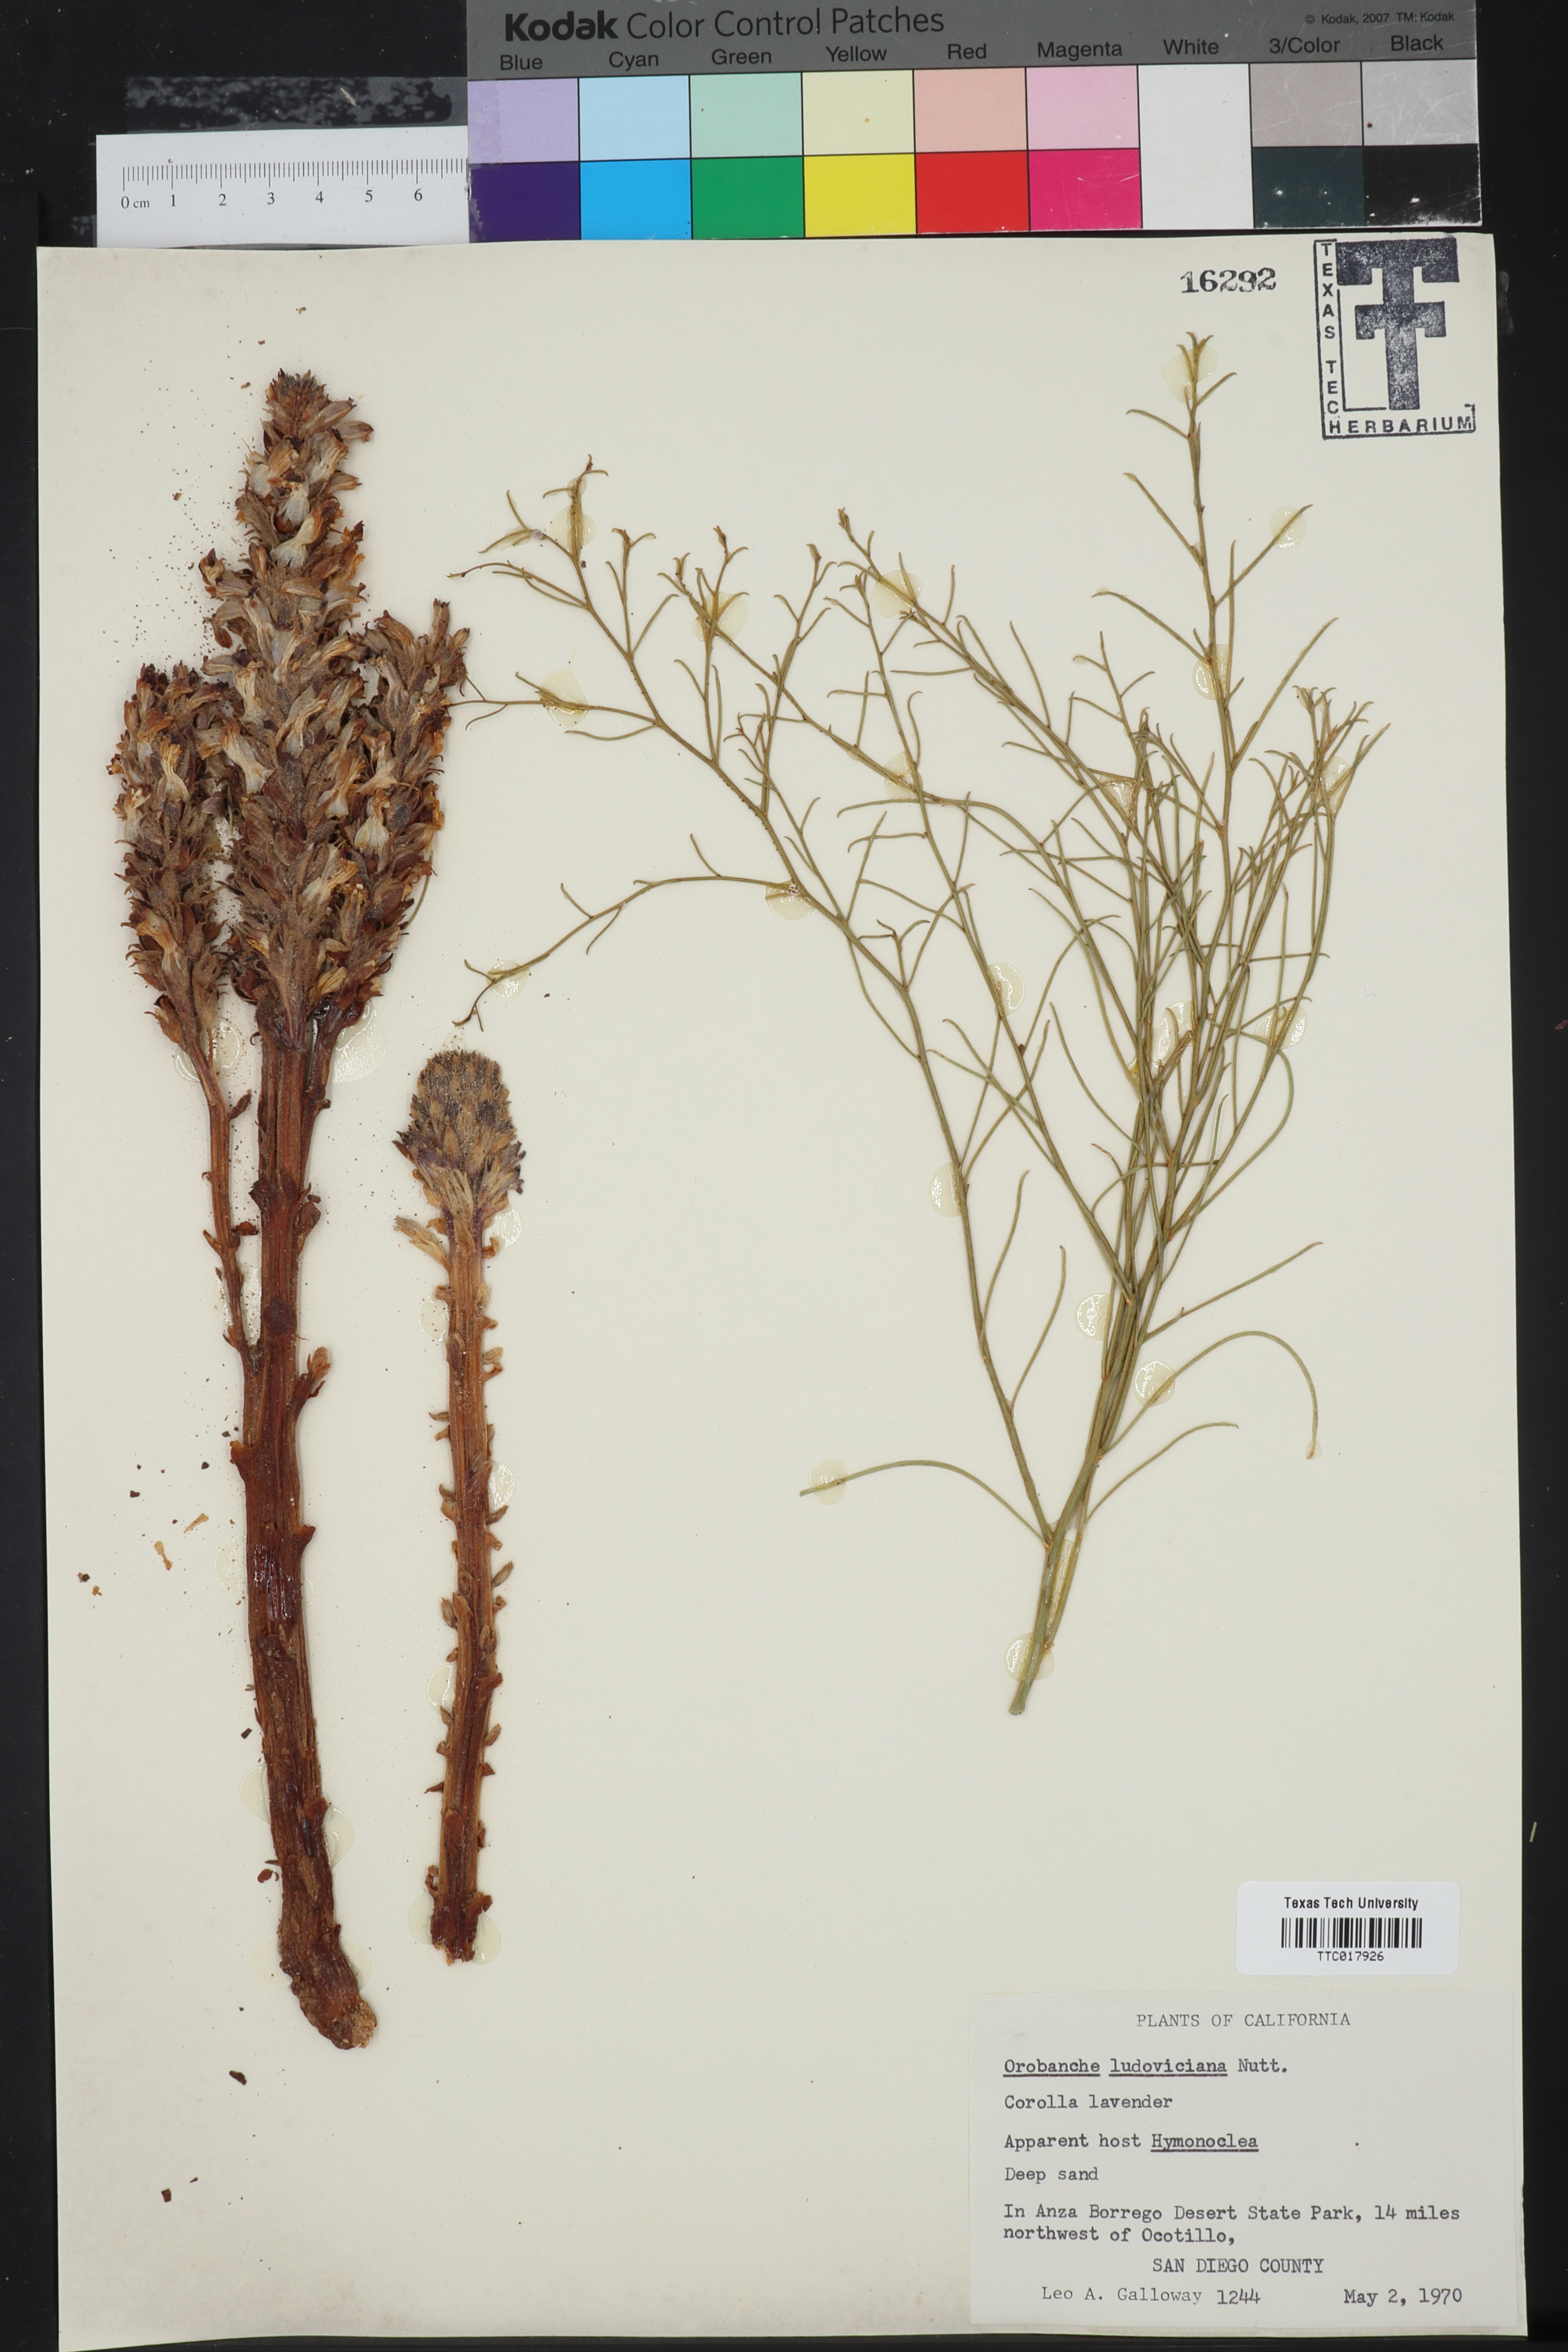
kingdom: Plantae
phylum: Tracheophyta
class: Magnoliopsida
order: Lamiales
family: Orobanchaceae
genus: Aphyllon
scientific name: Aphyllon ludovicianum
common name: Louisiana broomrape
